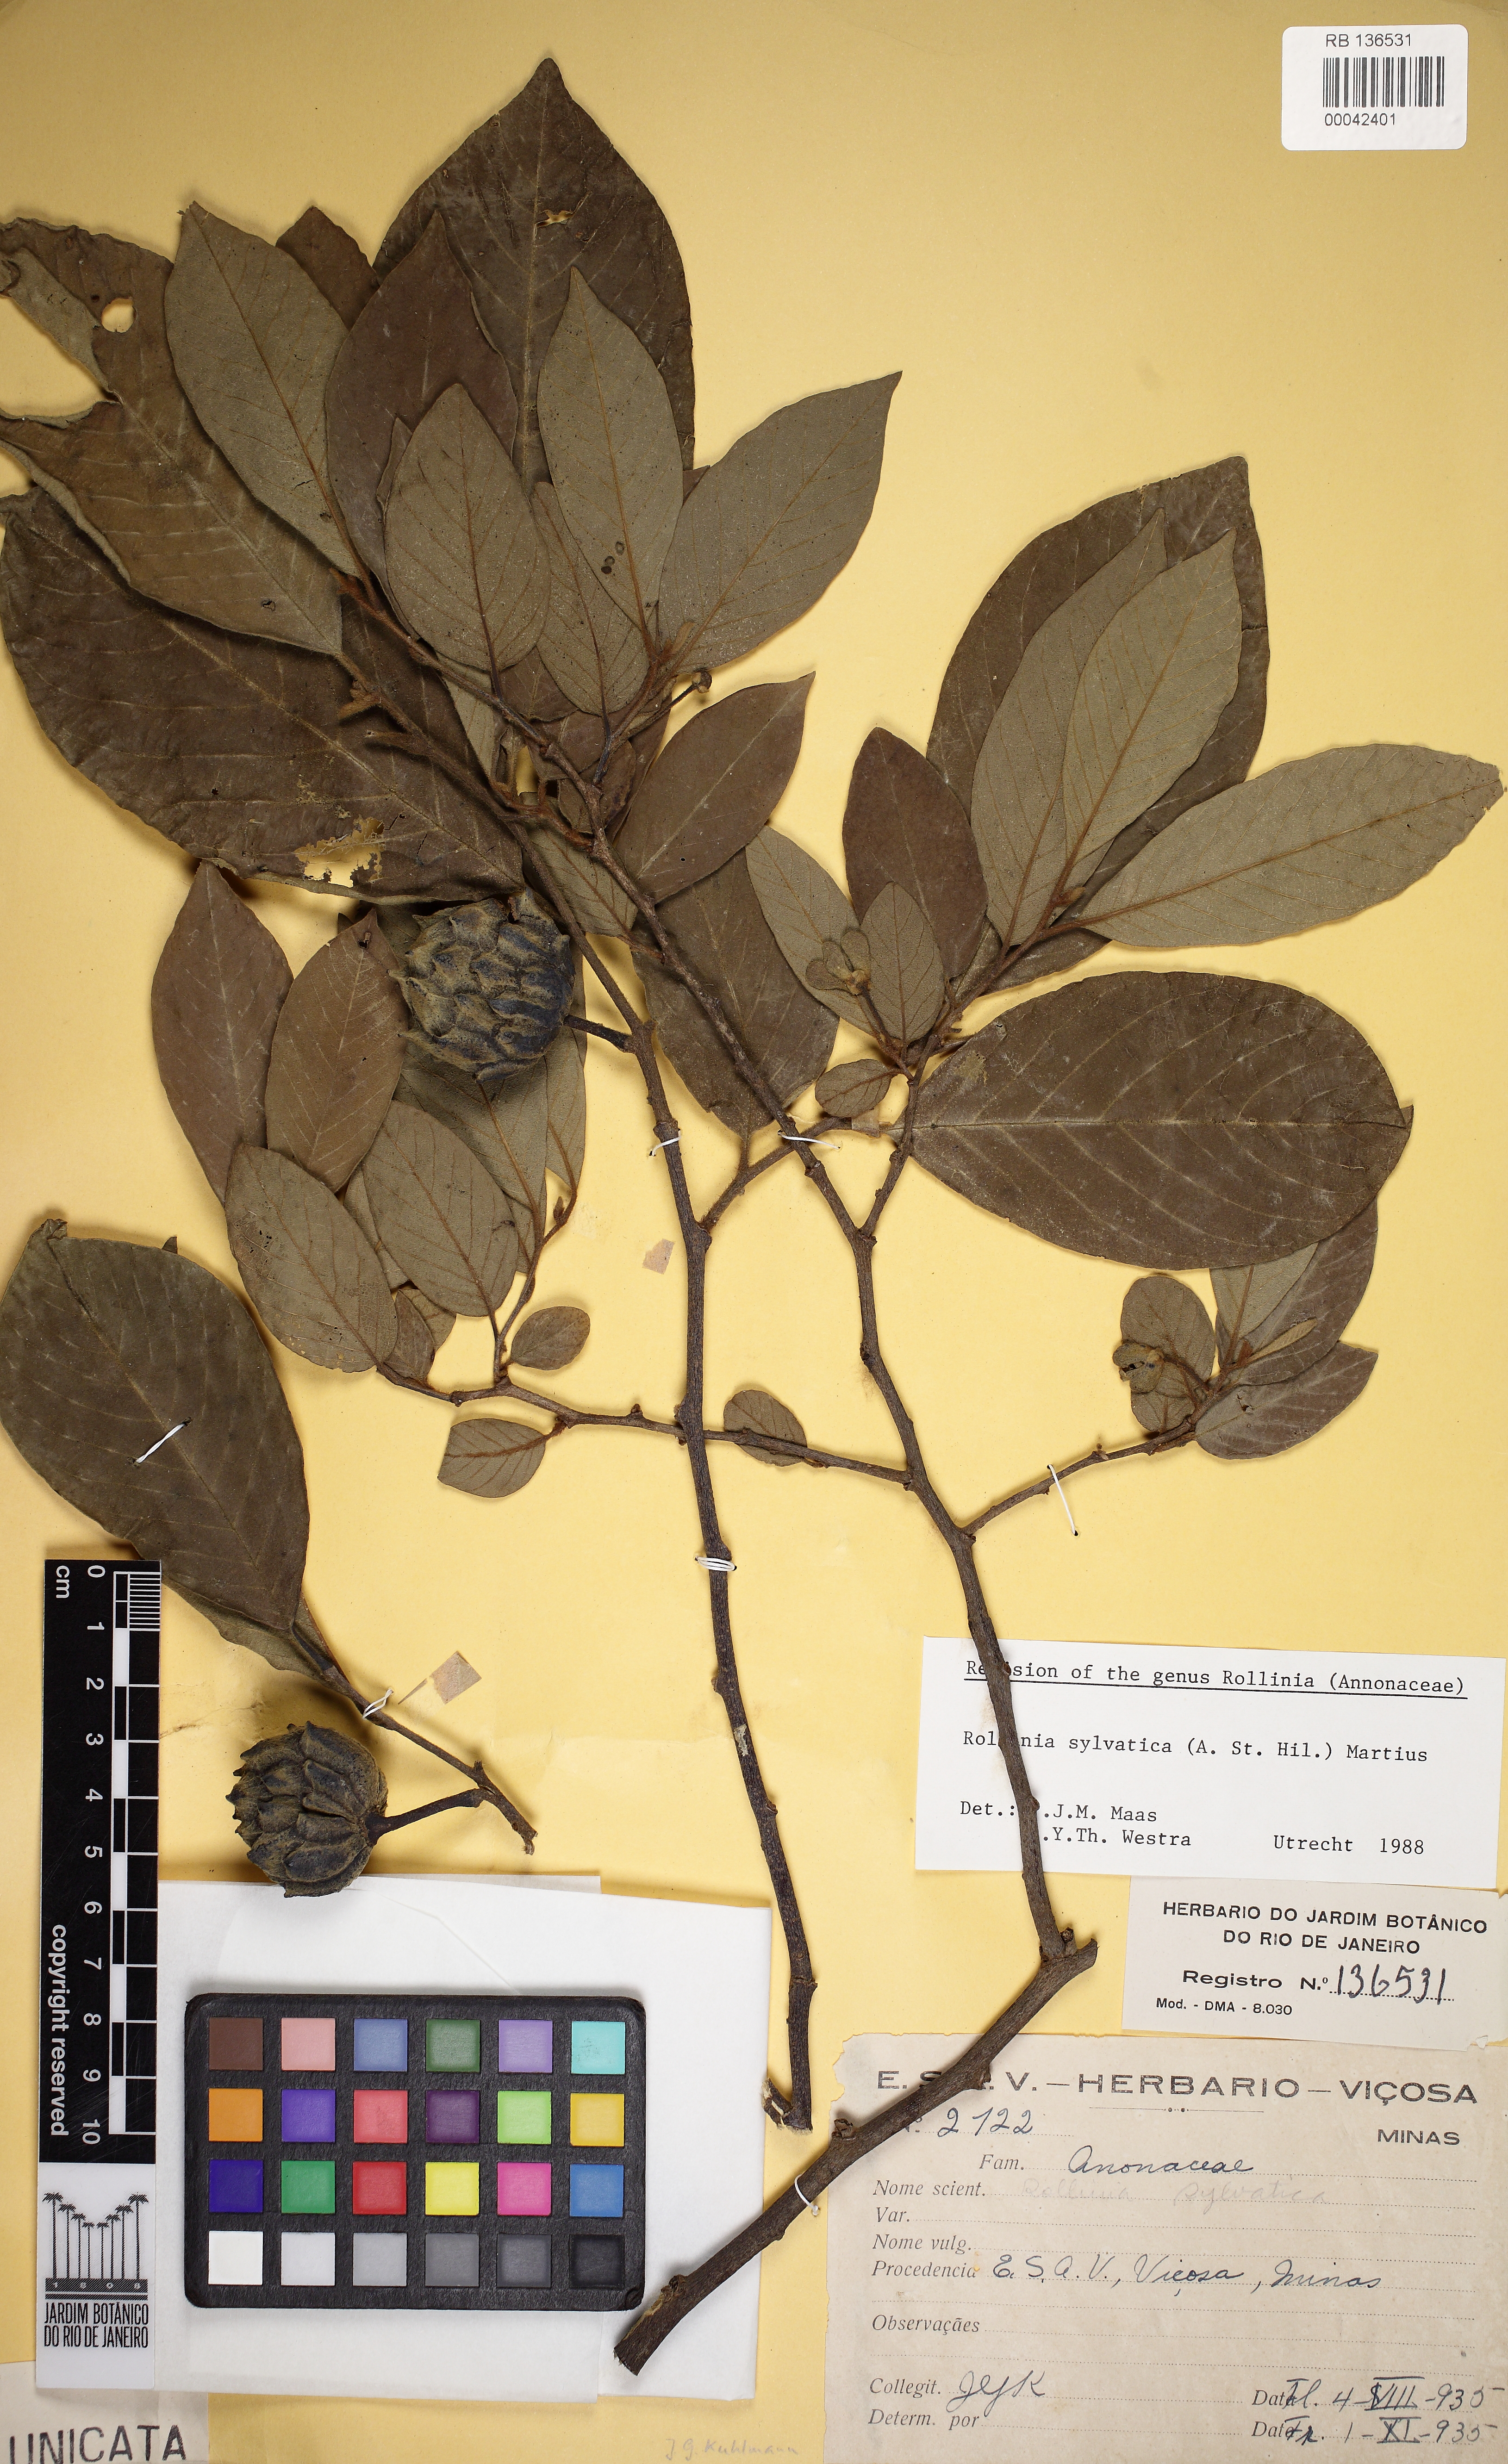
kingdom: Plantae
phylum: Tracheophyta
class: Magnoliopsida
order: Magnoliales
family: Annonaceae
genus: Annona
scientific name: Annona sylvatica
